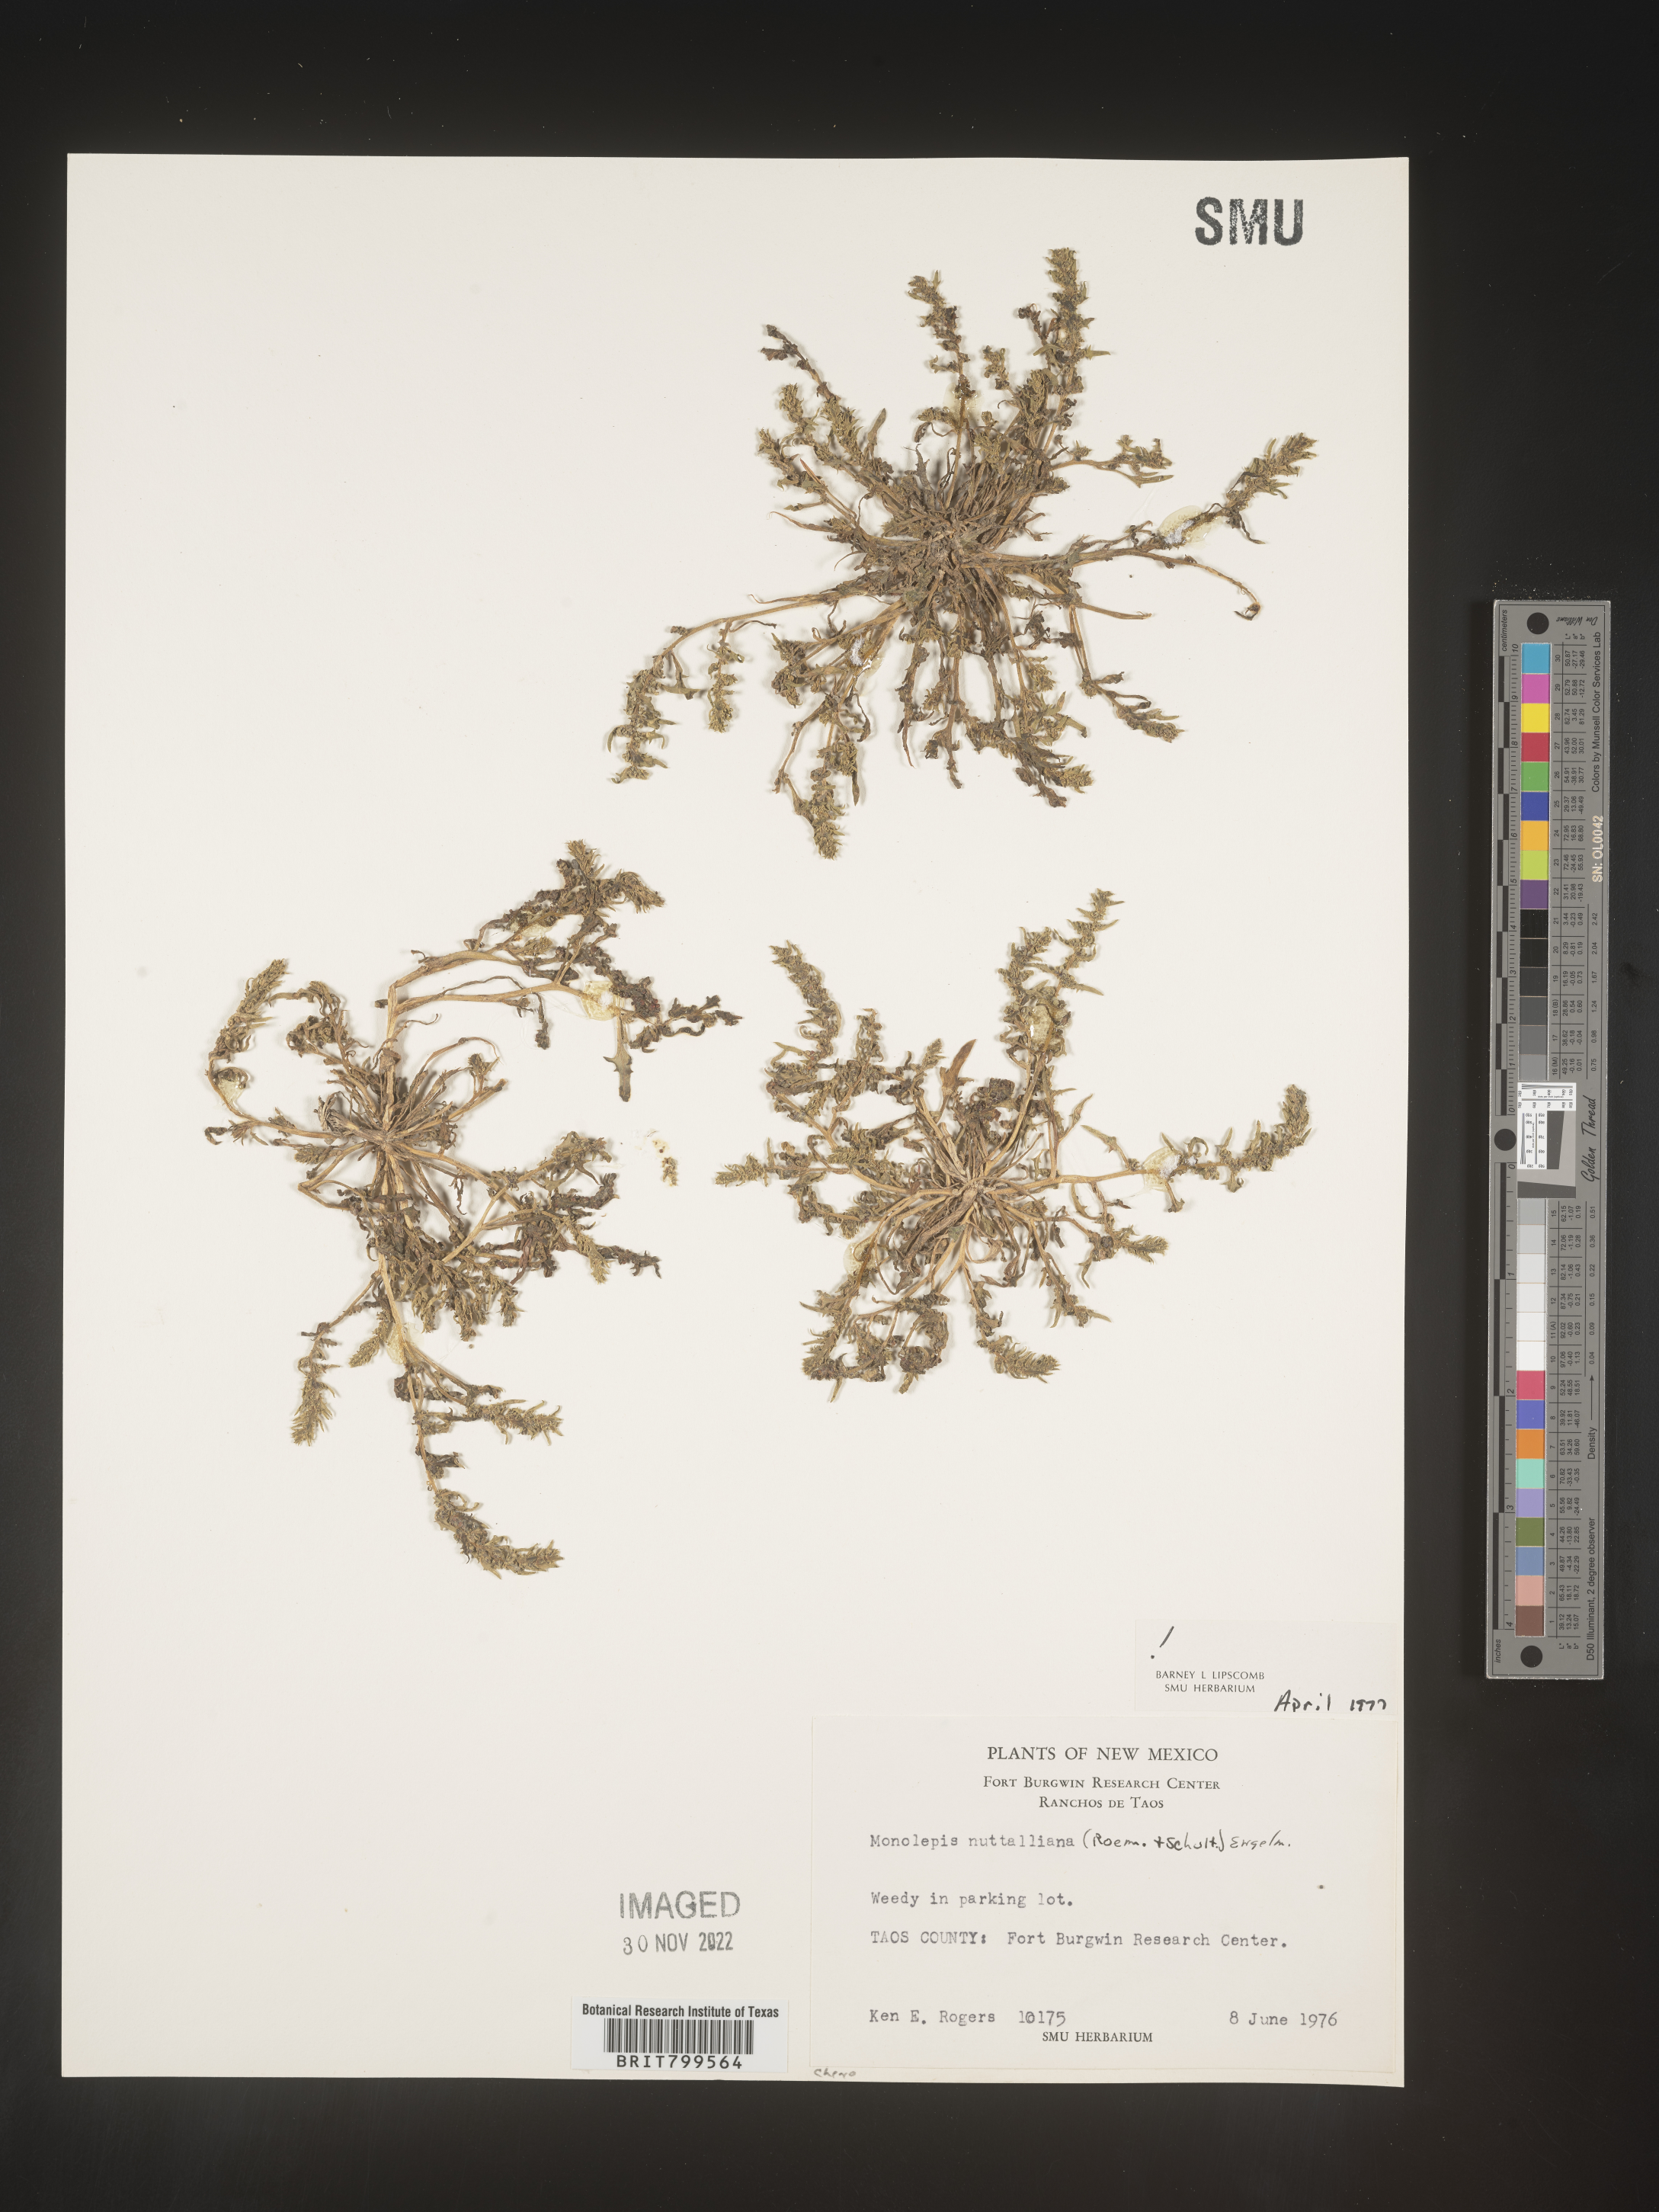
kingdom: Plantae
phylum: Tracheophyta
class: Magnoliopsida
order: Caryophyllales
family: Amaranthaceae
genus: Blitum
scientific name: Blitum
